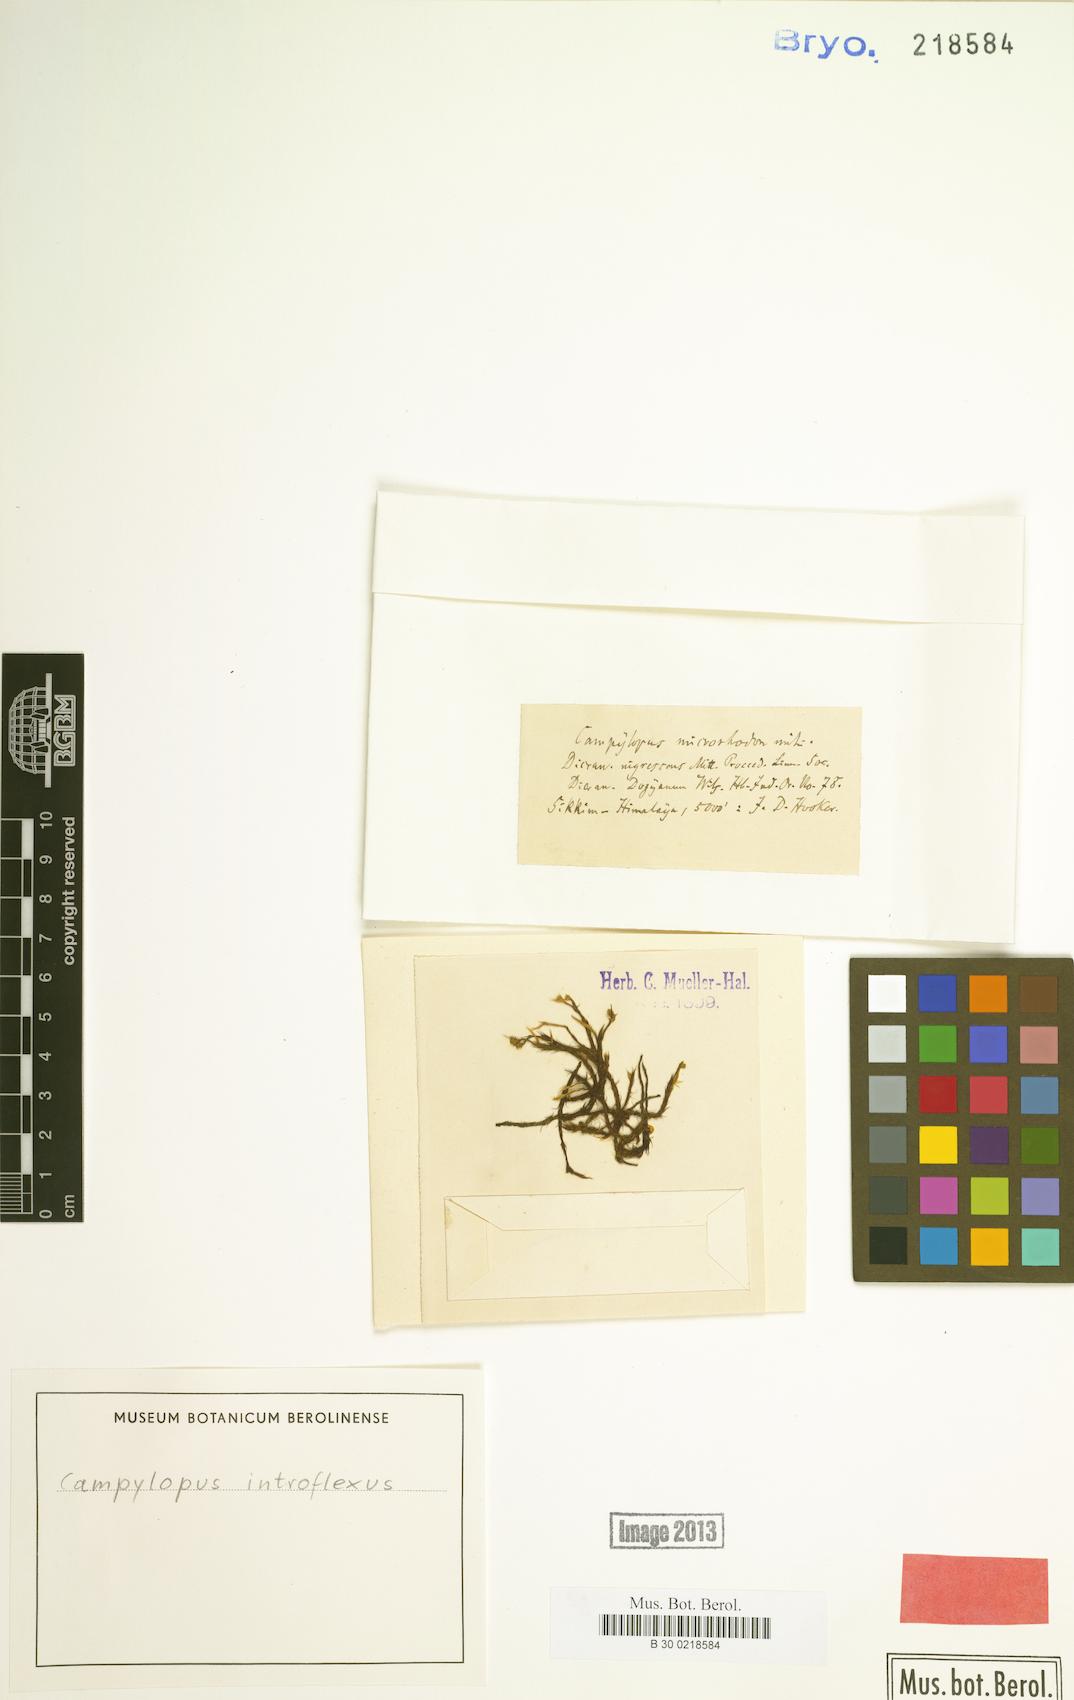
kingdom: Plantae
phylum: Bryophyta
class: Bryopsida
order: Dicranales
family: Leucobryaceae
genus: Campylopus
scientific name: Campylopus introflexus
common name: Heath star moss
